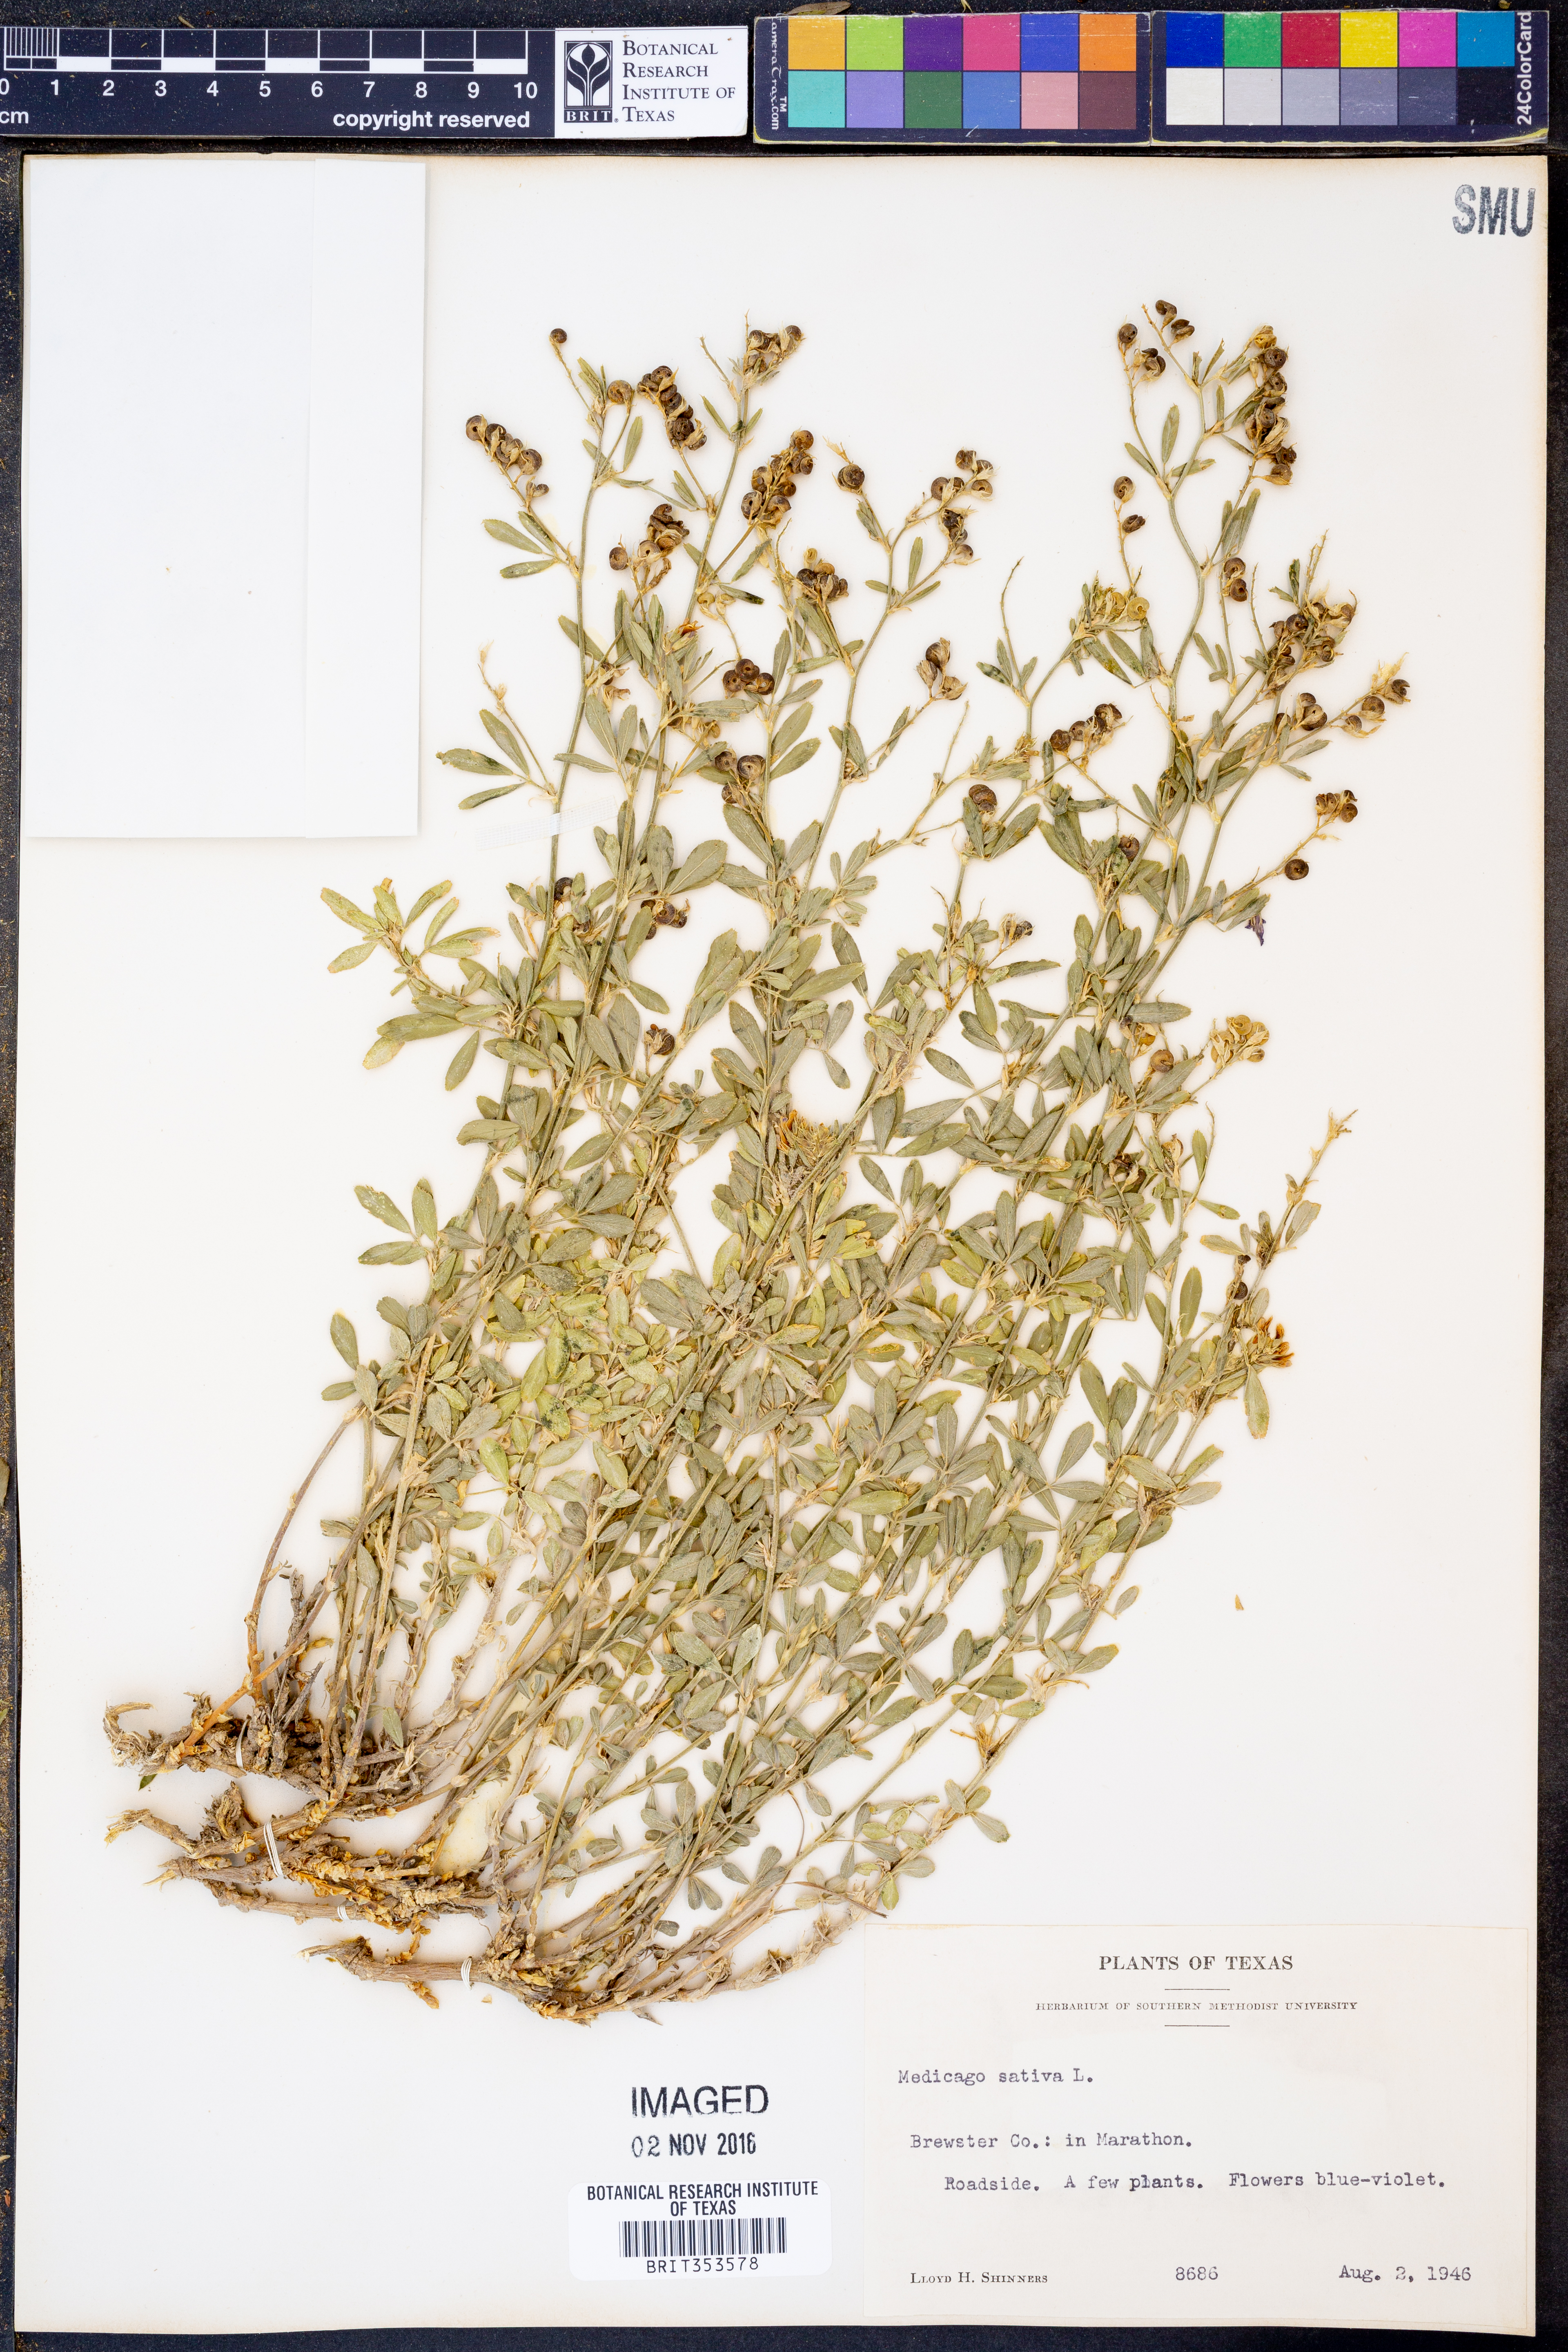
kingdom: Plantae
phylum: Tracheophyta
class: Magnoliopsida
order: Fabales
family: Fabaceae
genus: Medicago
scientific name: Medicago sativa
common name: Alfalfa
